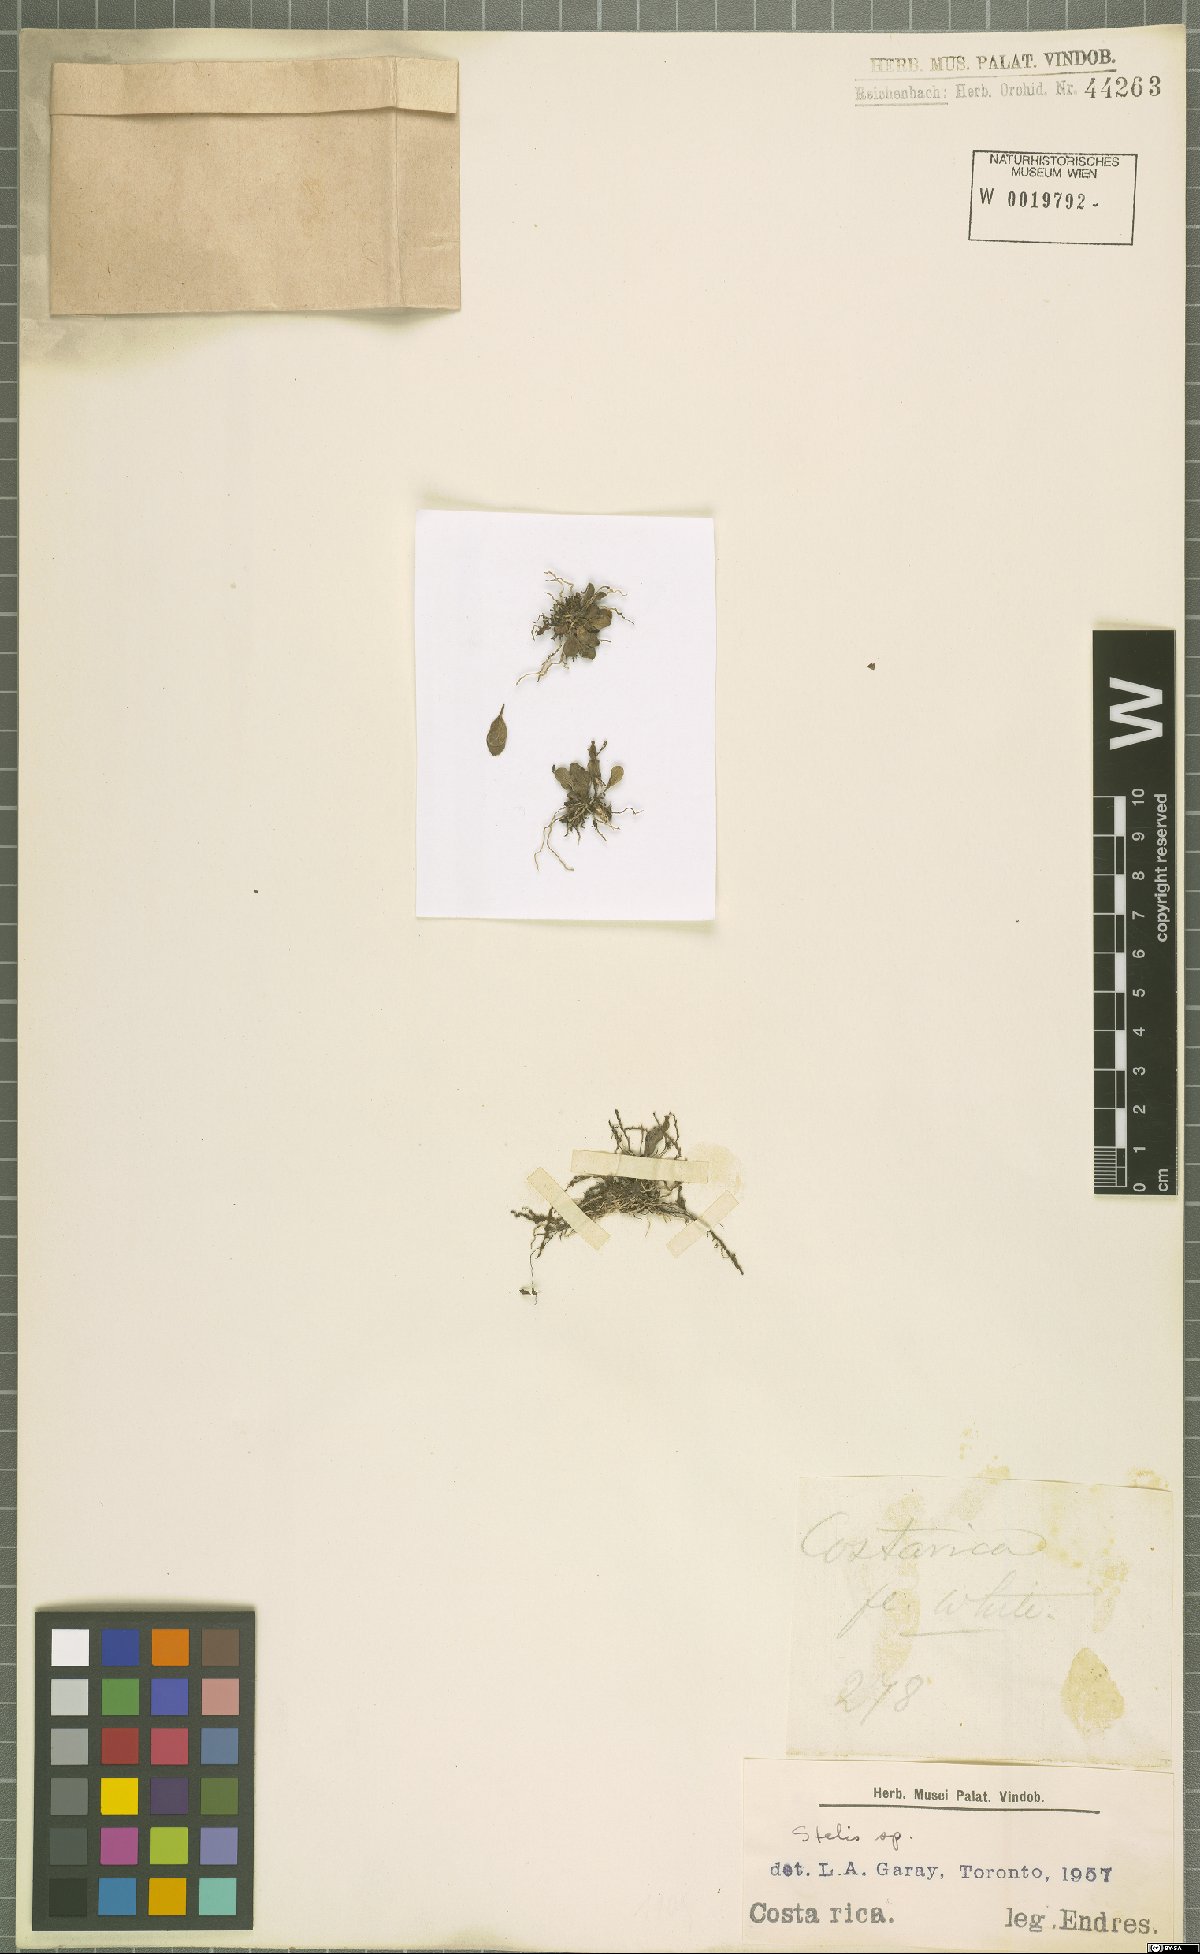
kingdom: Plantae
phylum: Tracheophyta
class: Liliopsida
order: Asparagales
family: Orchidaceae
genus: Stelis
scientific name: Stelis
